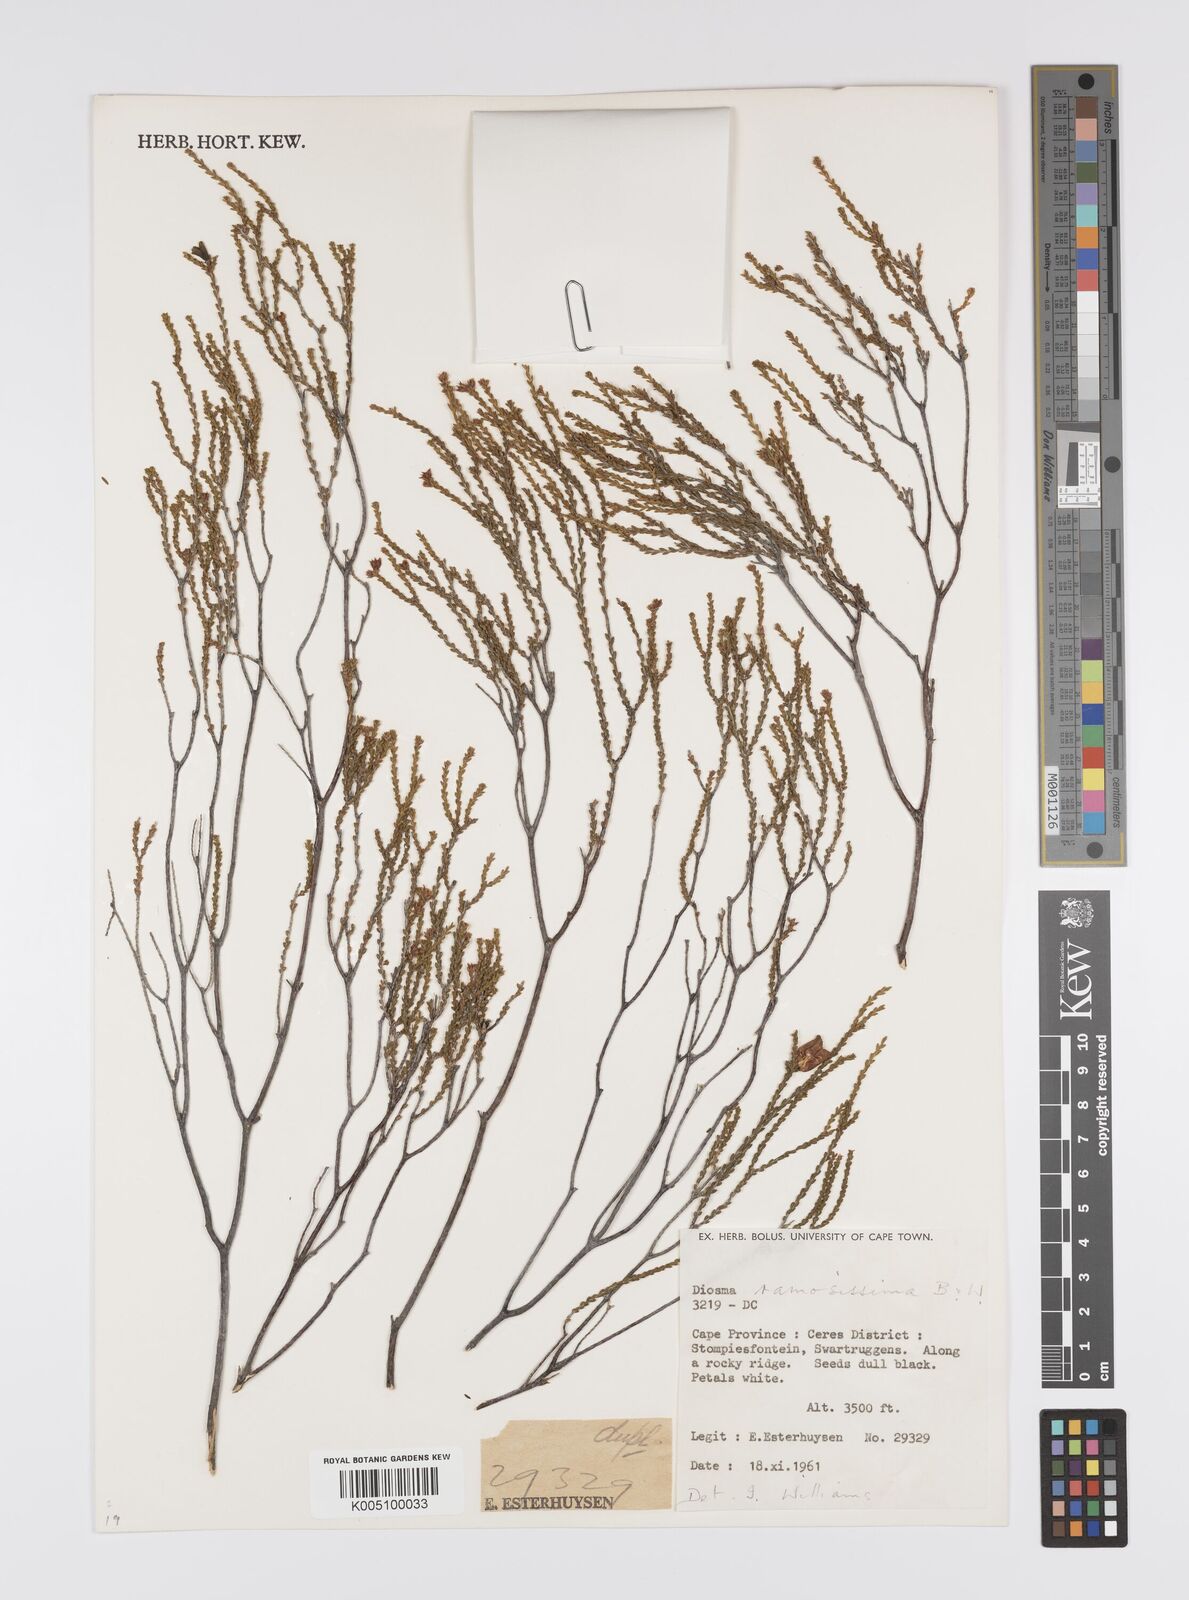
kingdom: Plantae
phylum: Tracheophyta
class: Magnoliopsida
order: Sapindales
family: Rutaceae
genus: Diosma
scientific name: Diosma ramosissima
